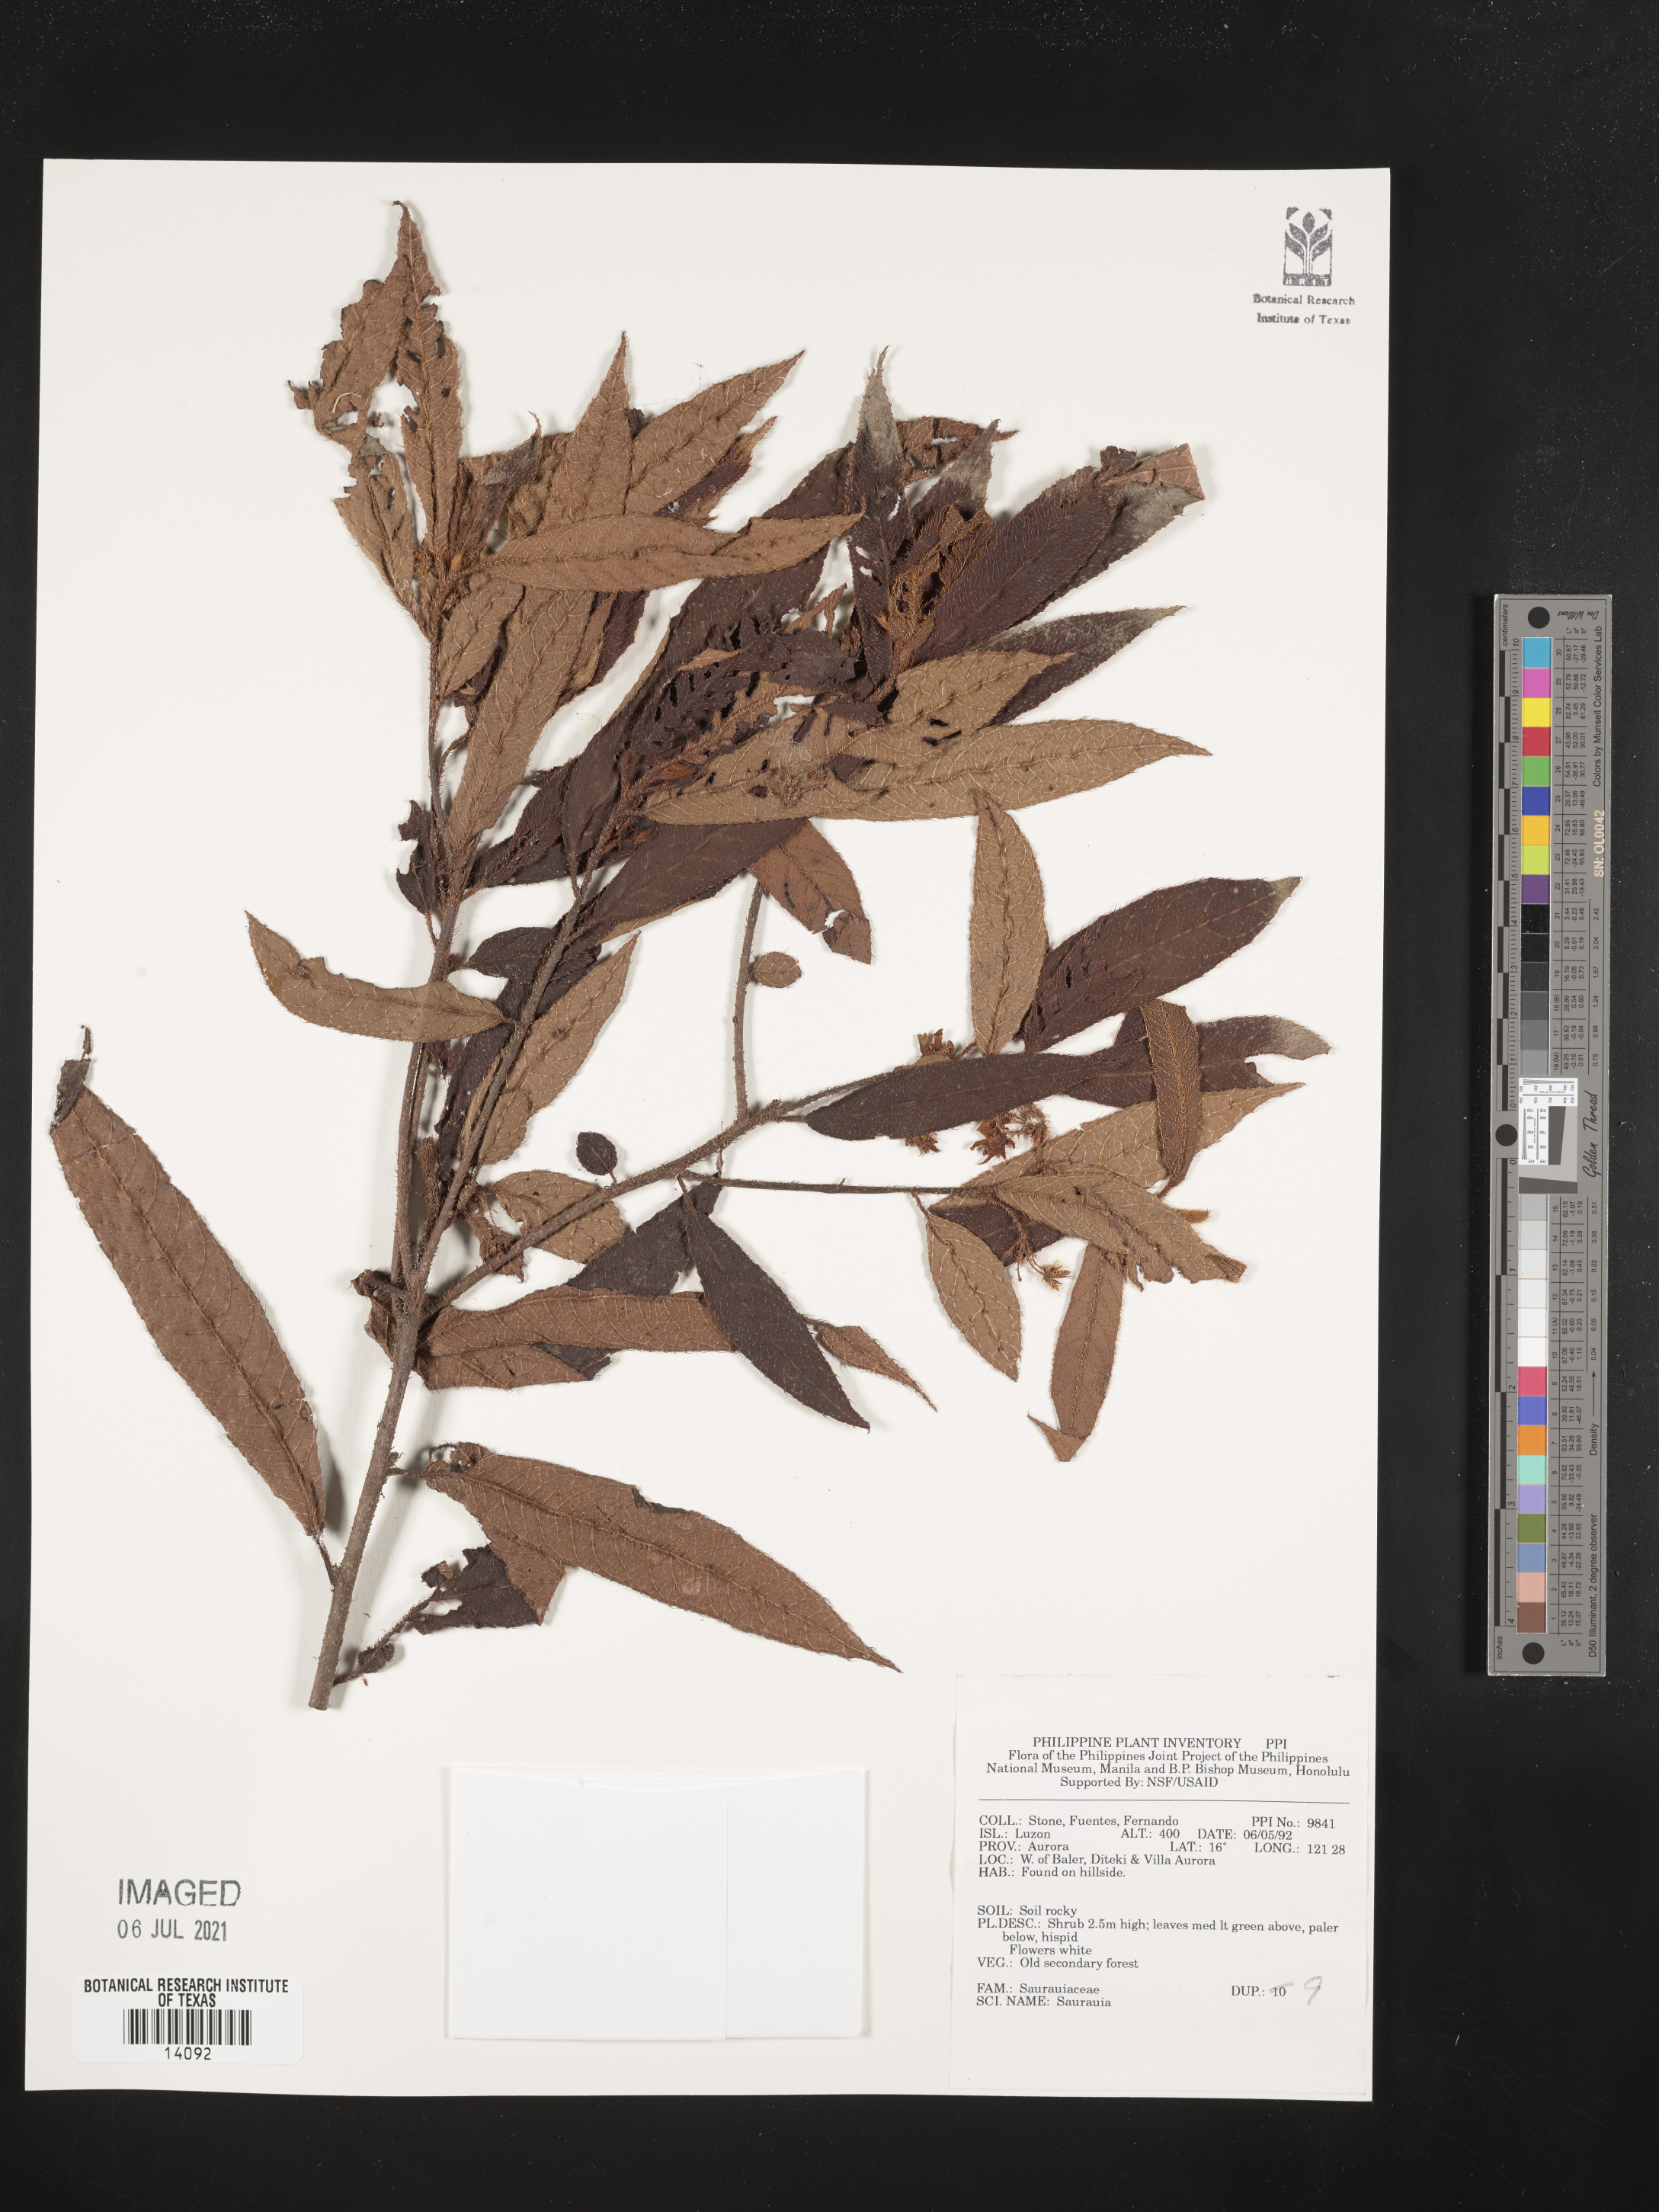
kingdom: Plantae
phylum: Tracheophyta
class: Magnoliopsida
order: Ericales
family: Actinidiaceae
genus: Saurauia
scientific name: Saurauia
